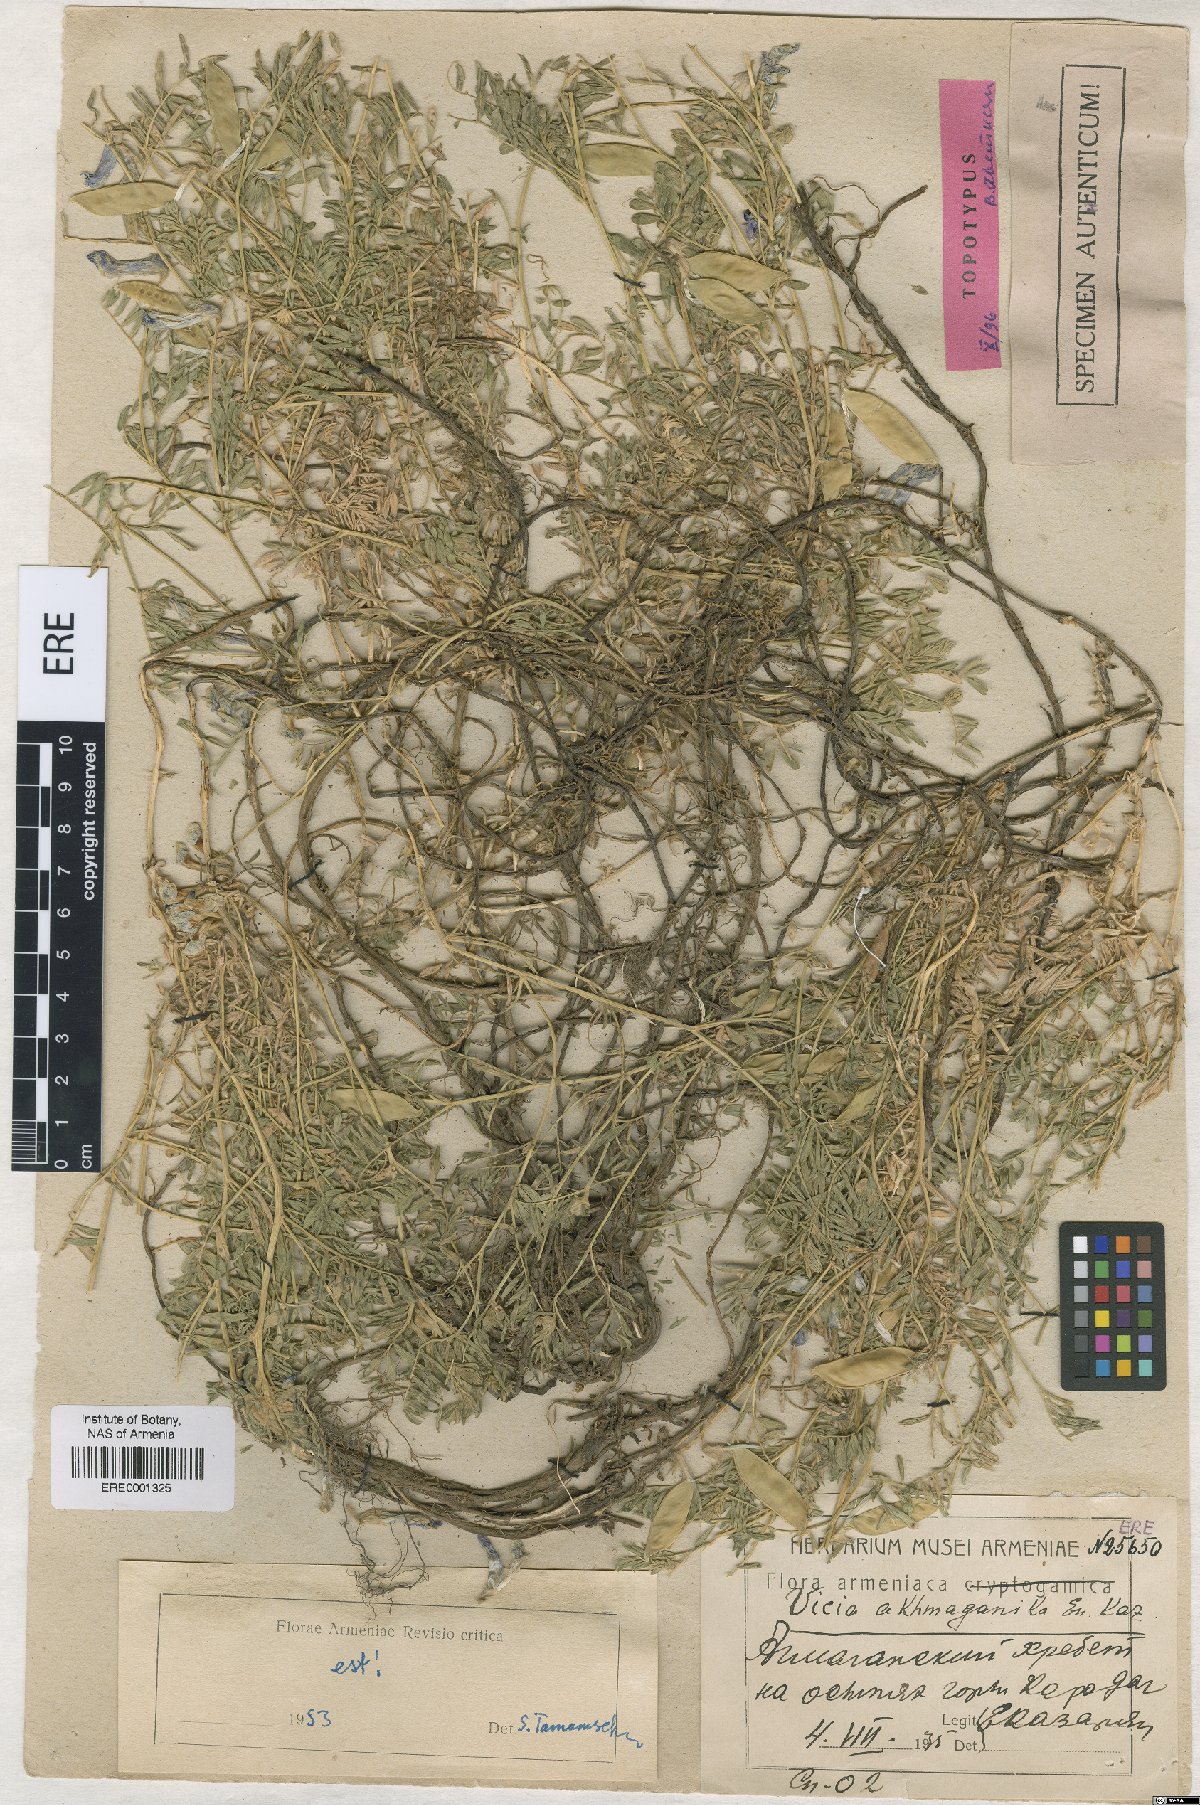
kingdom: Plantae
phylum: Tracheophyta
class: Magnoliopsida
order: Fabales
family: Fabaceae
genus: Vicia
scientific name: Vicia canescens
